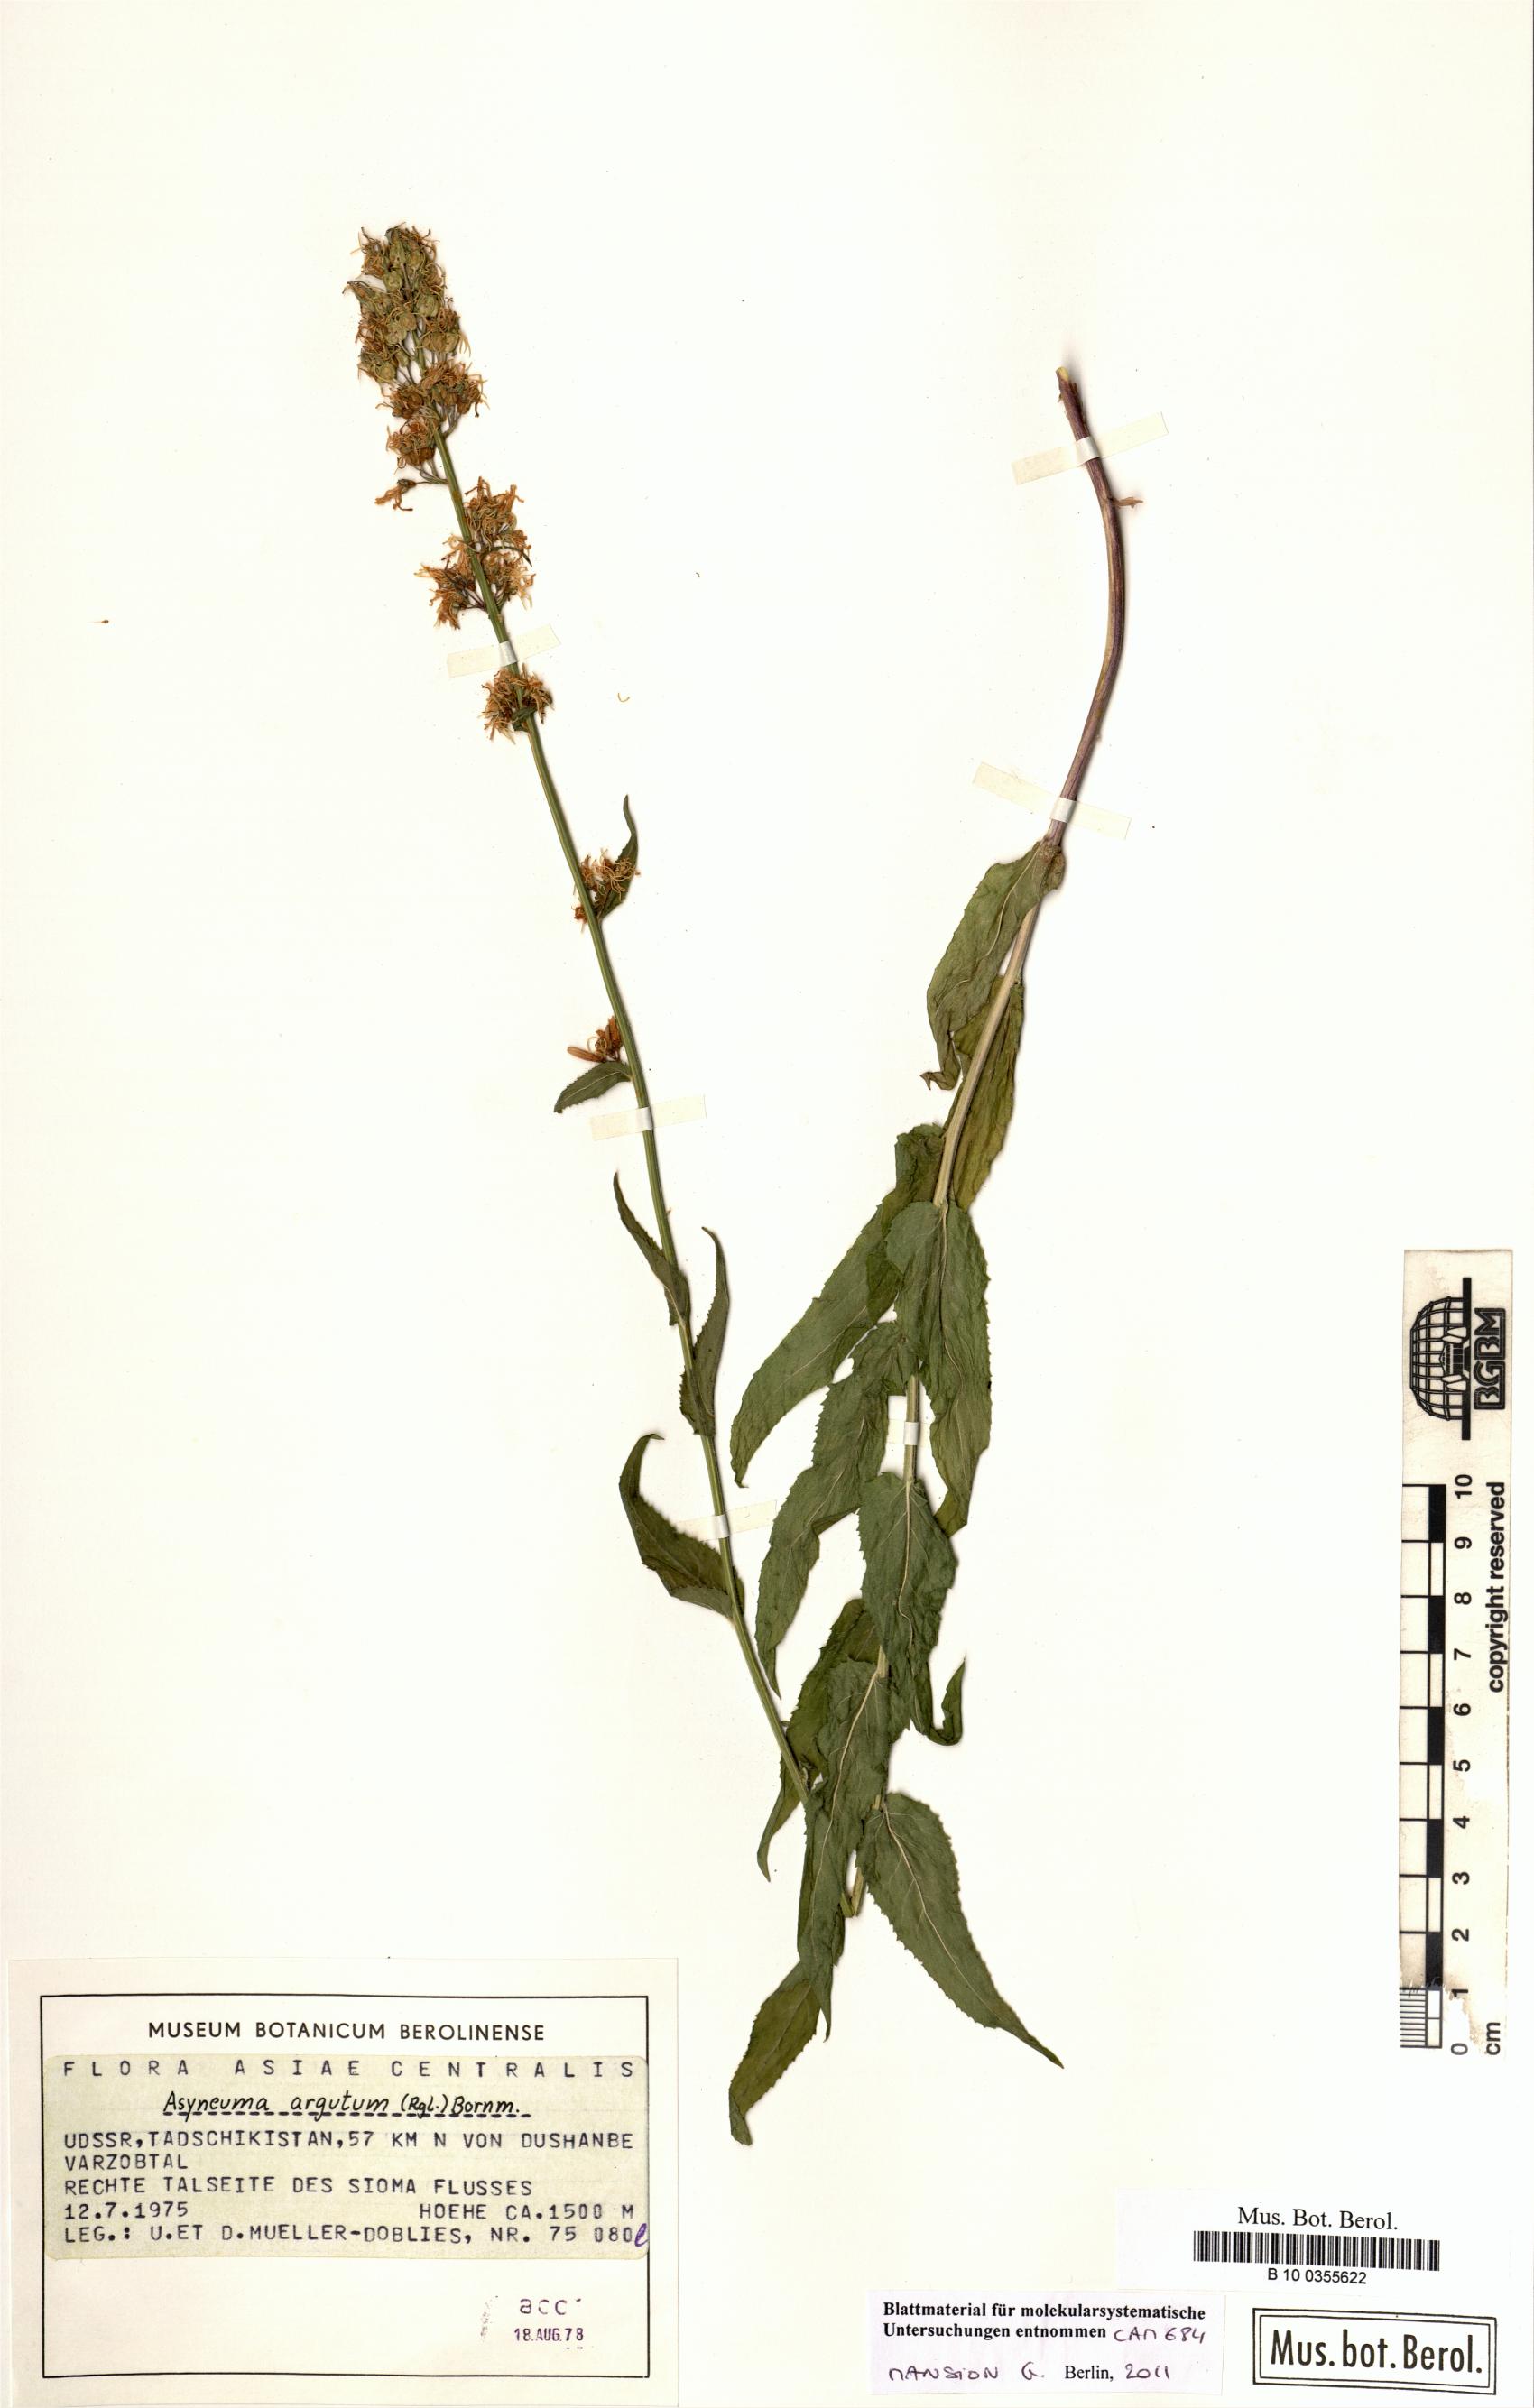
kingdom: Plantae
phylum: Tracheophyta
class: Magnoliopsida
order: Asterales
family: Campanulaceae
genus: Asyneuma
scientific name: Asyneuma argutum
